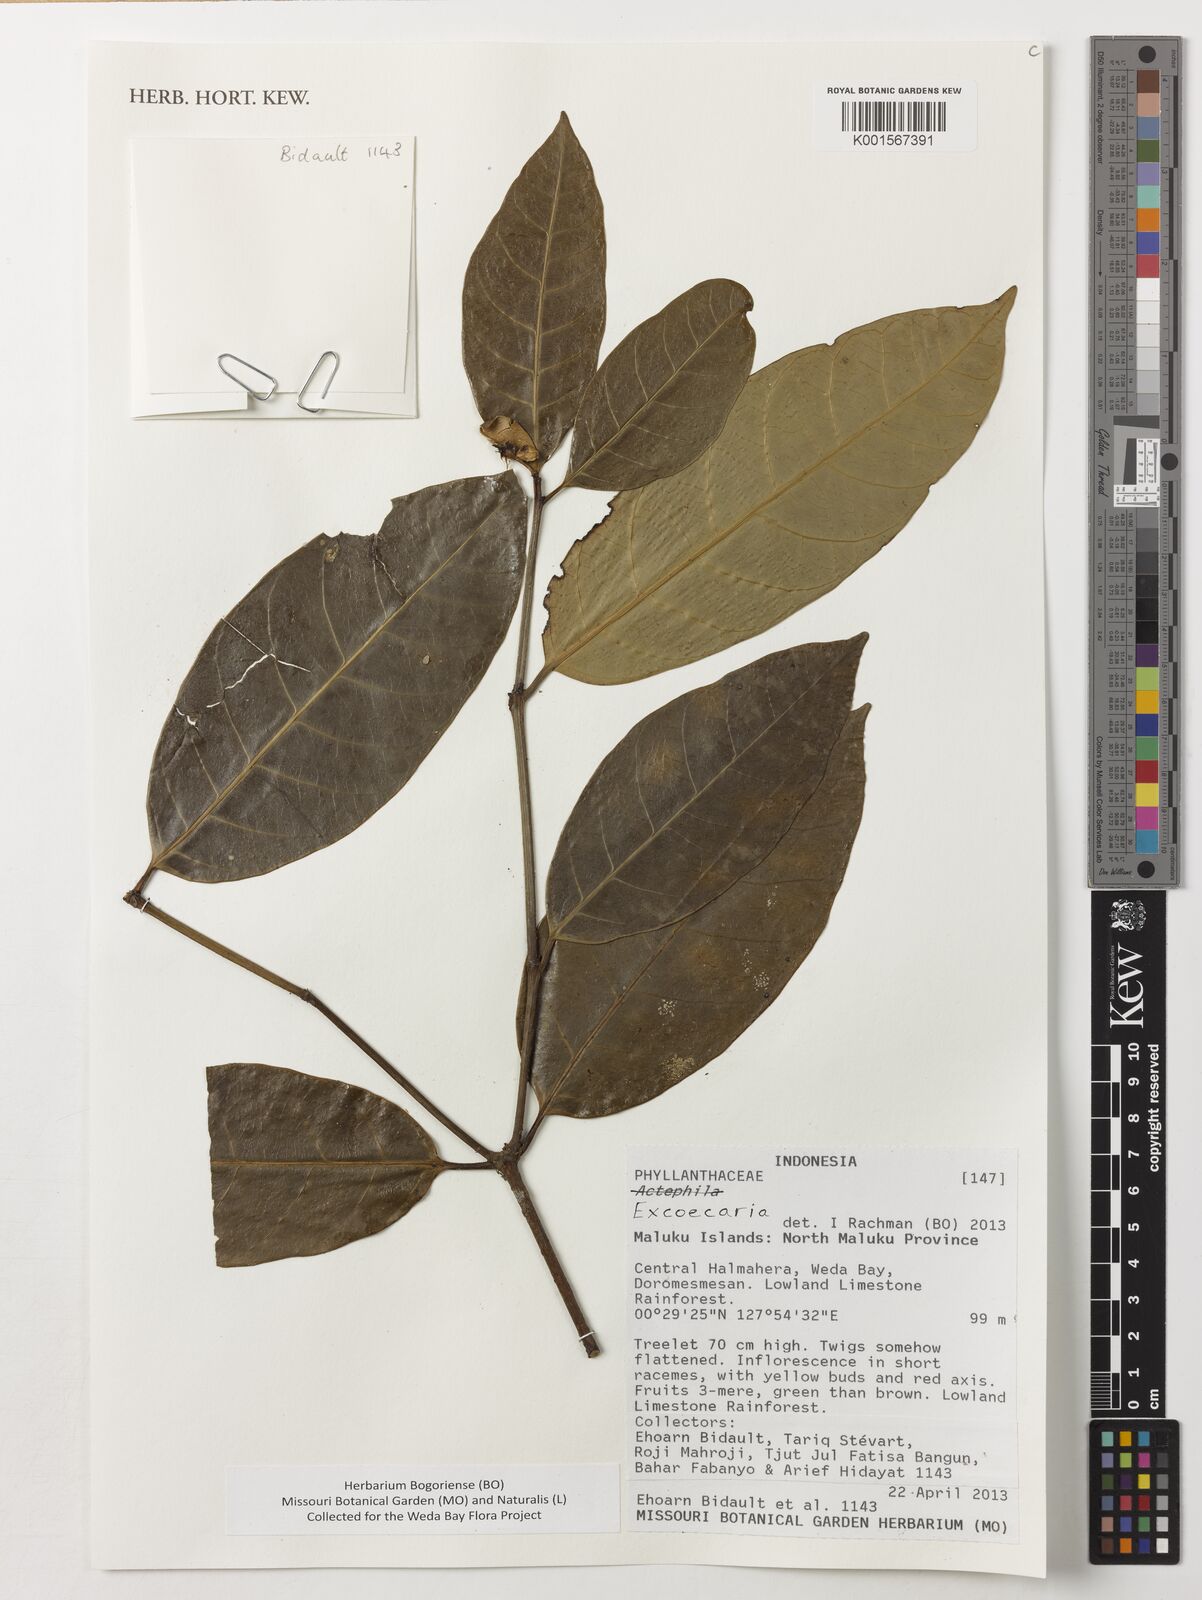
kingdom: Plantae
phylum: Tracheophyta
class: Magnoliopsida
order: Malpighiales
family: Euphorbiaceae
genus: Excoecaria
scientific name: Excoecaria
